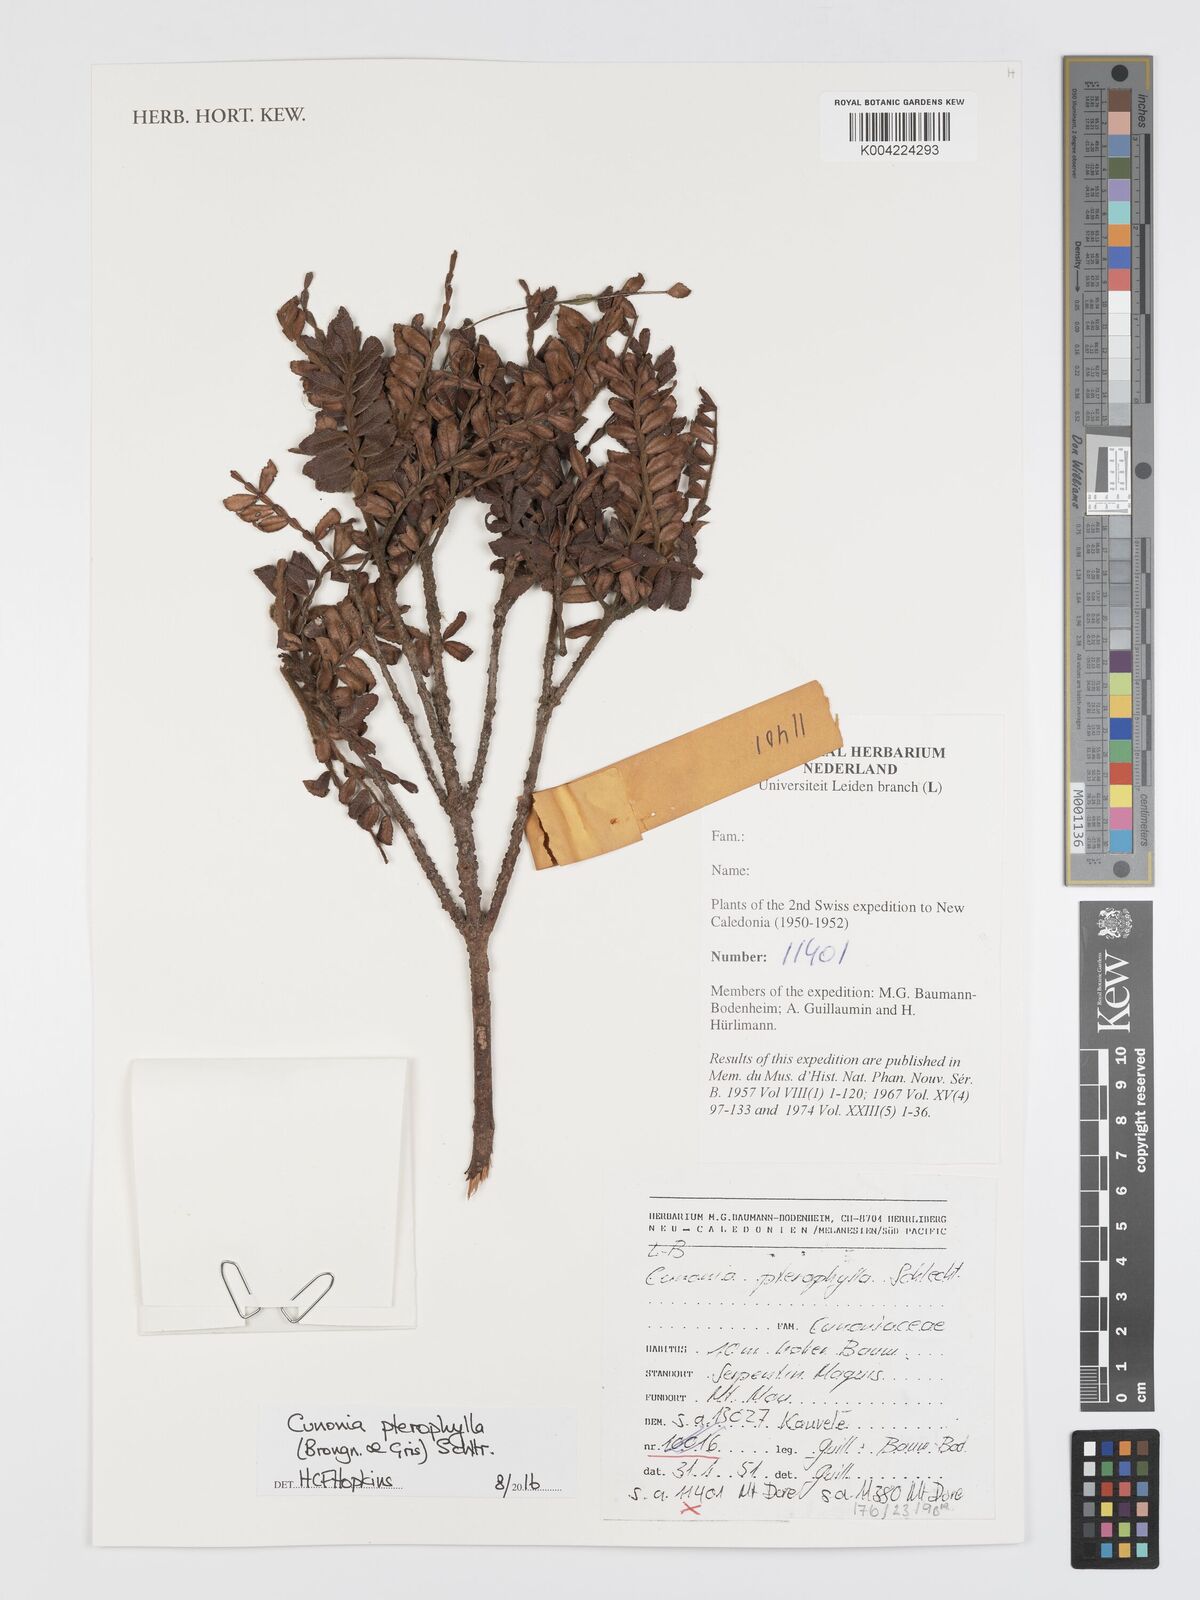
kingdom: Plantae
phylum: Tracheophyta
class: Magnoliopsida
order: Oxalidales
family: Cunoniaceae
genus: Cunonia
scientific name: Cunonia pterophylla
